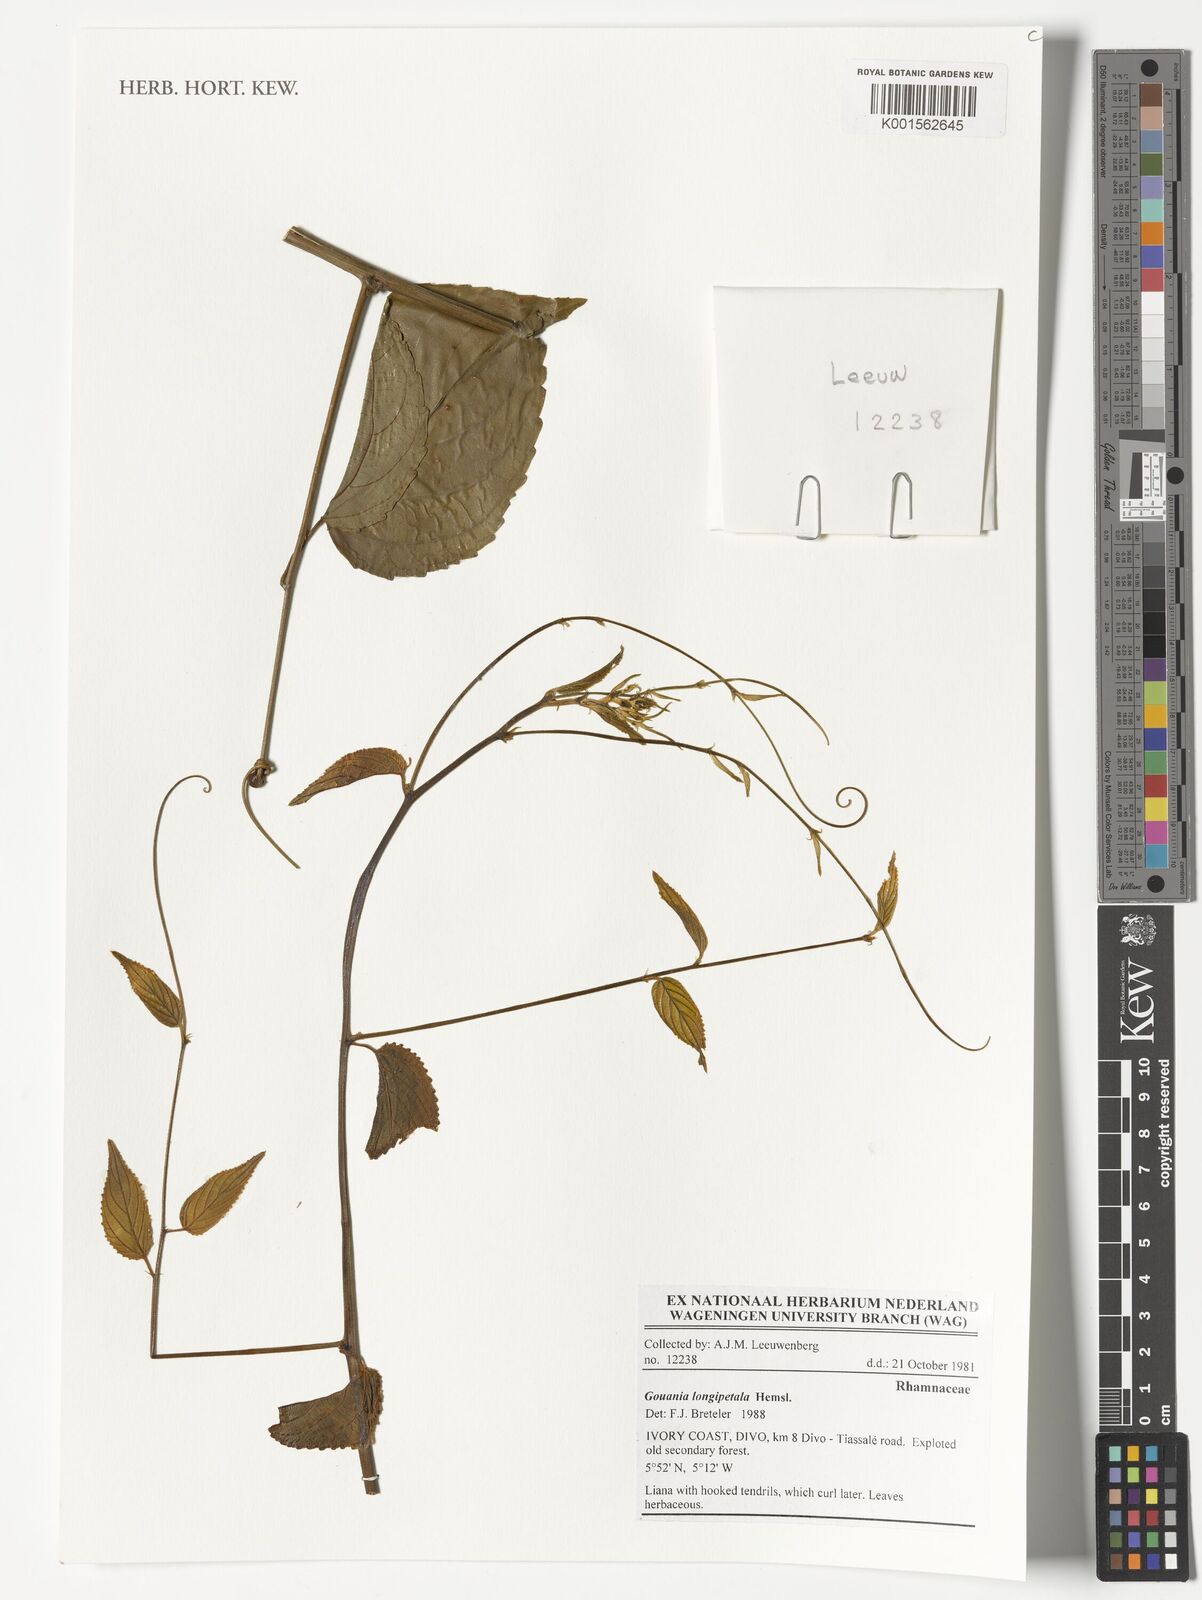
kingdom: Plantae
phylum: Tracheophyta
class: Magnoliopsida
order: Rosales
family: Rhamnaceae
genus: Gouania
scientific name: Gouania longipetala
